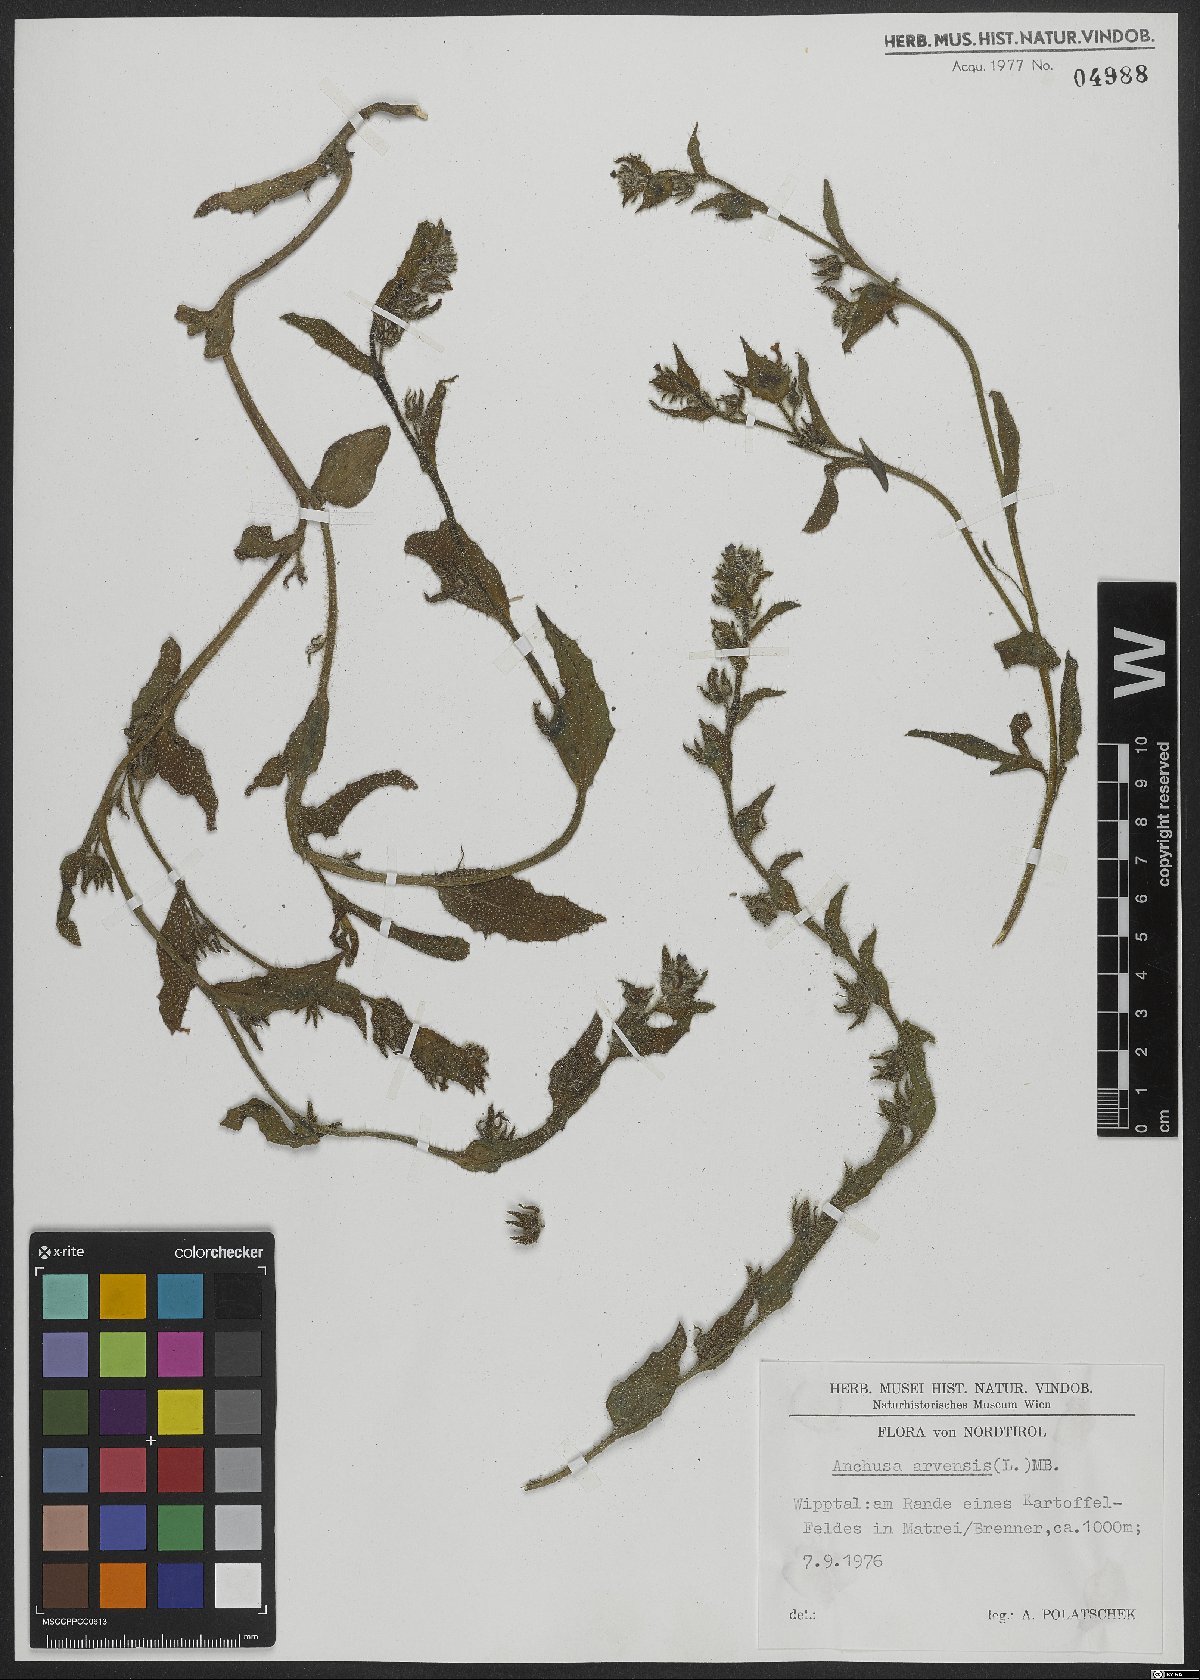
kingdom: Plantae
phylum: Tracheophyta
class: Magnoliopsida
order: Boraginales
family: Boraginaceae
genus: Lycopsis
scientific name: Lycopsis arvensis
